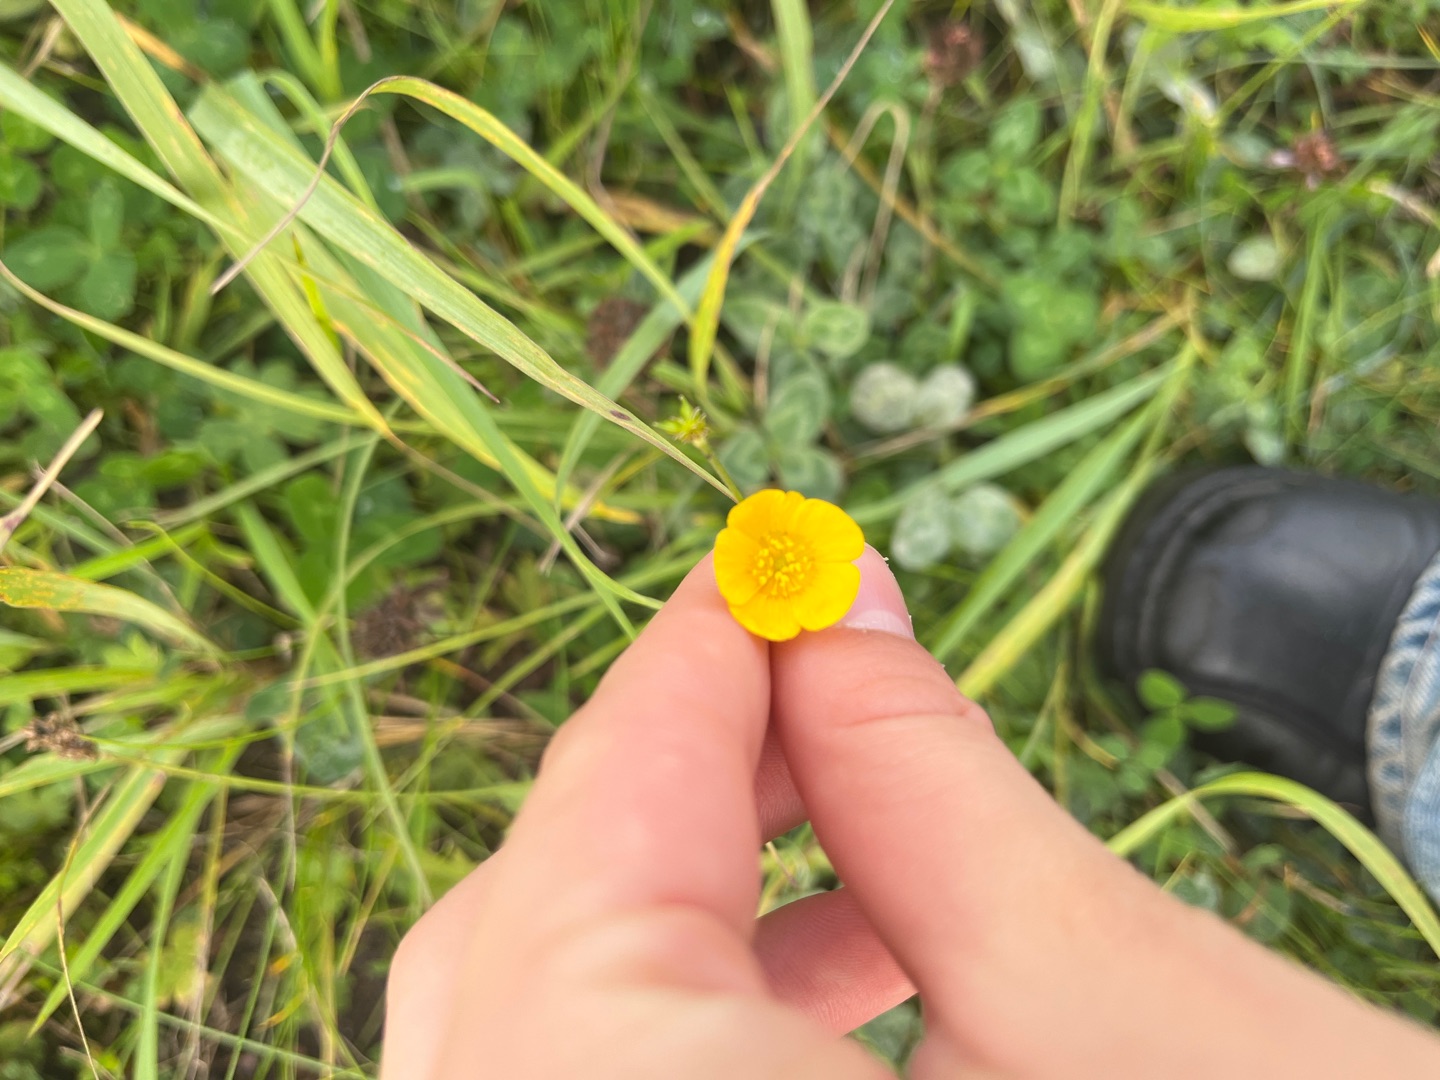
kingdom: Plantae
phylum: Tracheophyta
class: Magnoliopsida
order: Ranunculales
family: Ranunculaceae
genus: Ranunculus
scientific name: Ranunculus acris
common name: Bidende ranunkel
